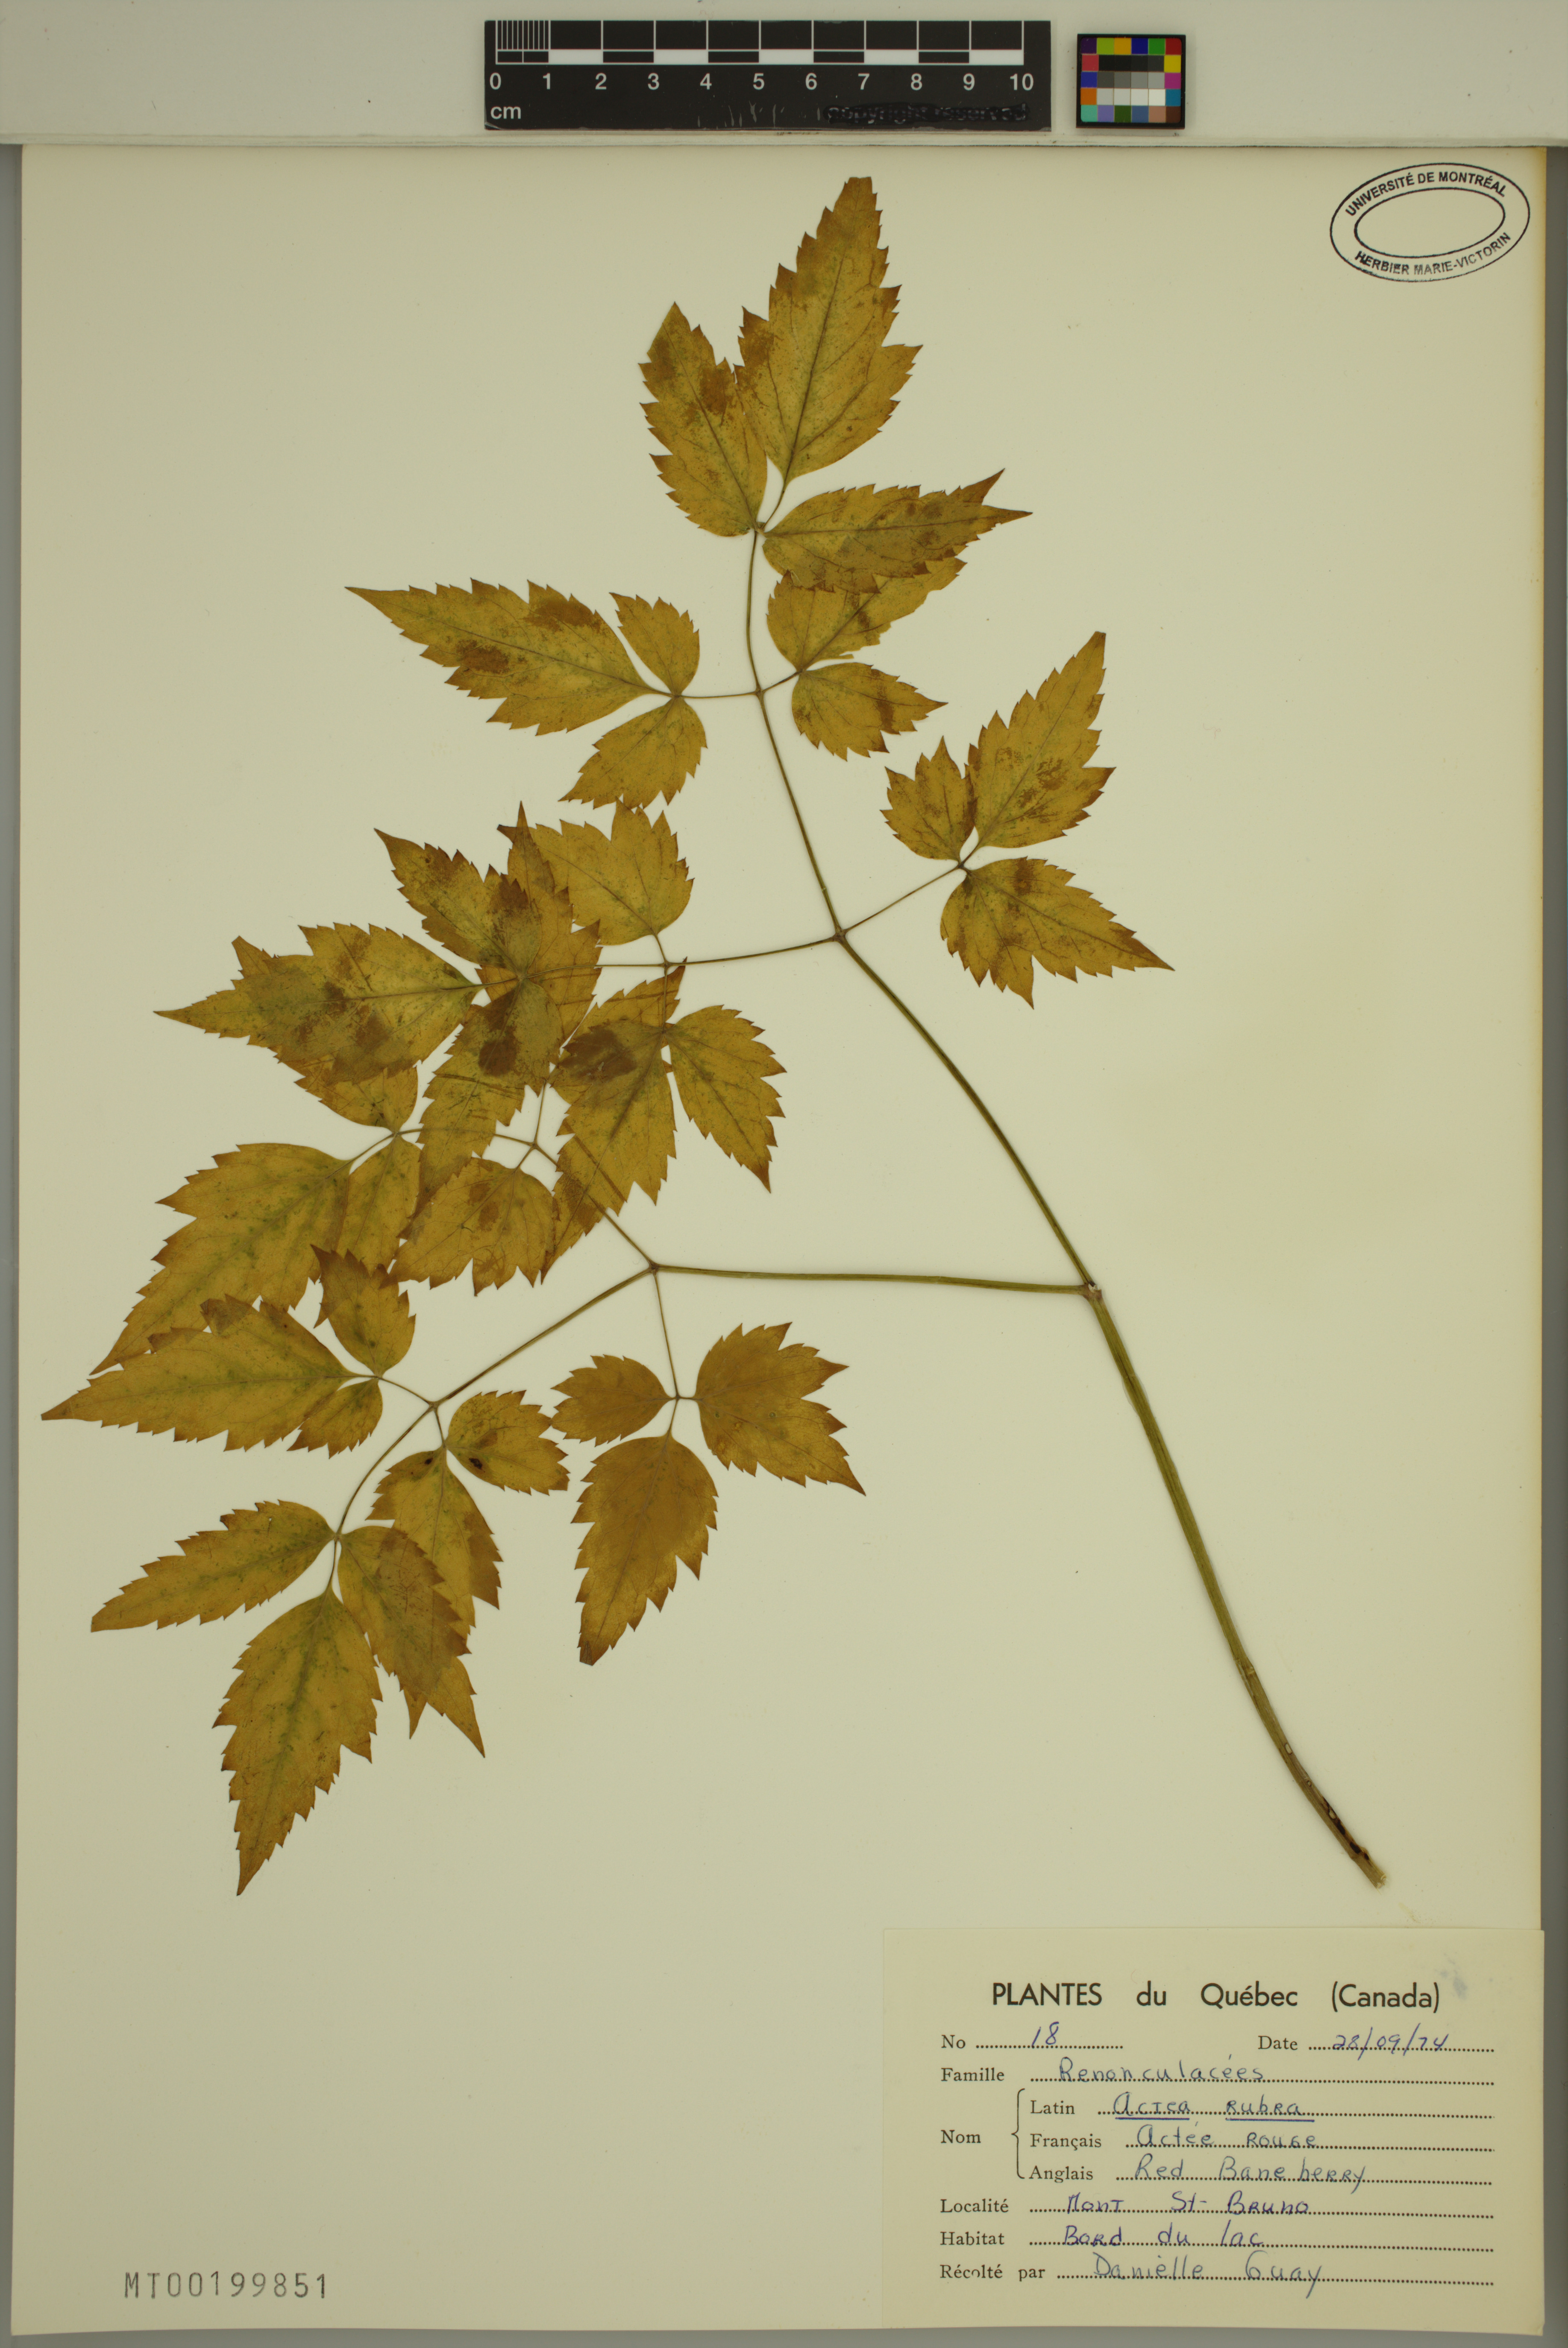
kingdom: Plantae
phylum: Tracheophyta
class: Magnoliopsida
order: Ranunculales
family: Ranunculaceae
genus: Actaea
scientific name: Actaea rubra
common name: Red baneberry
